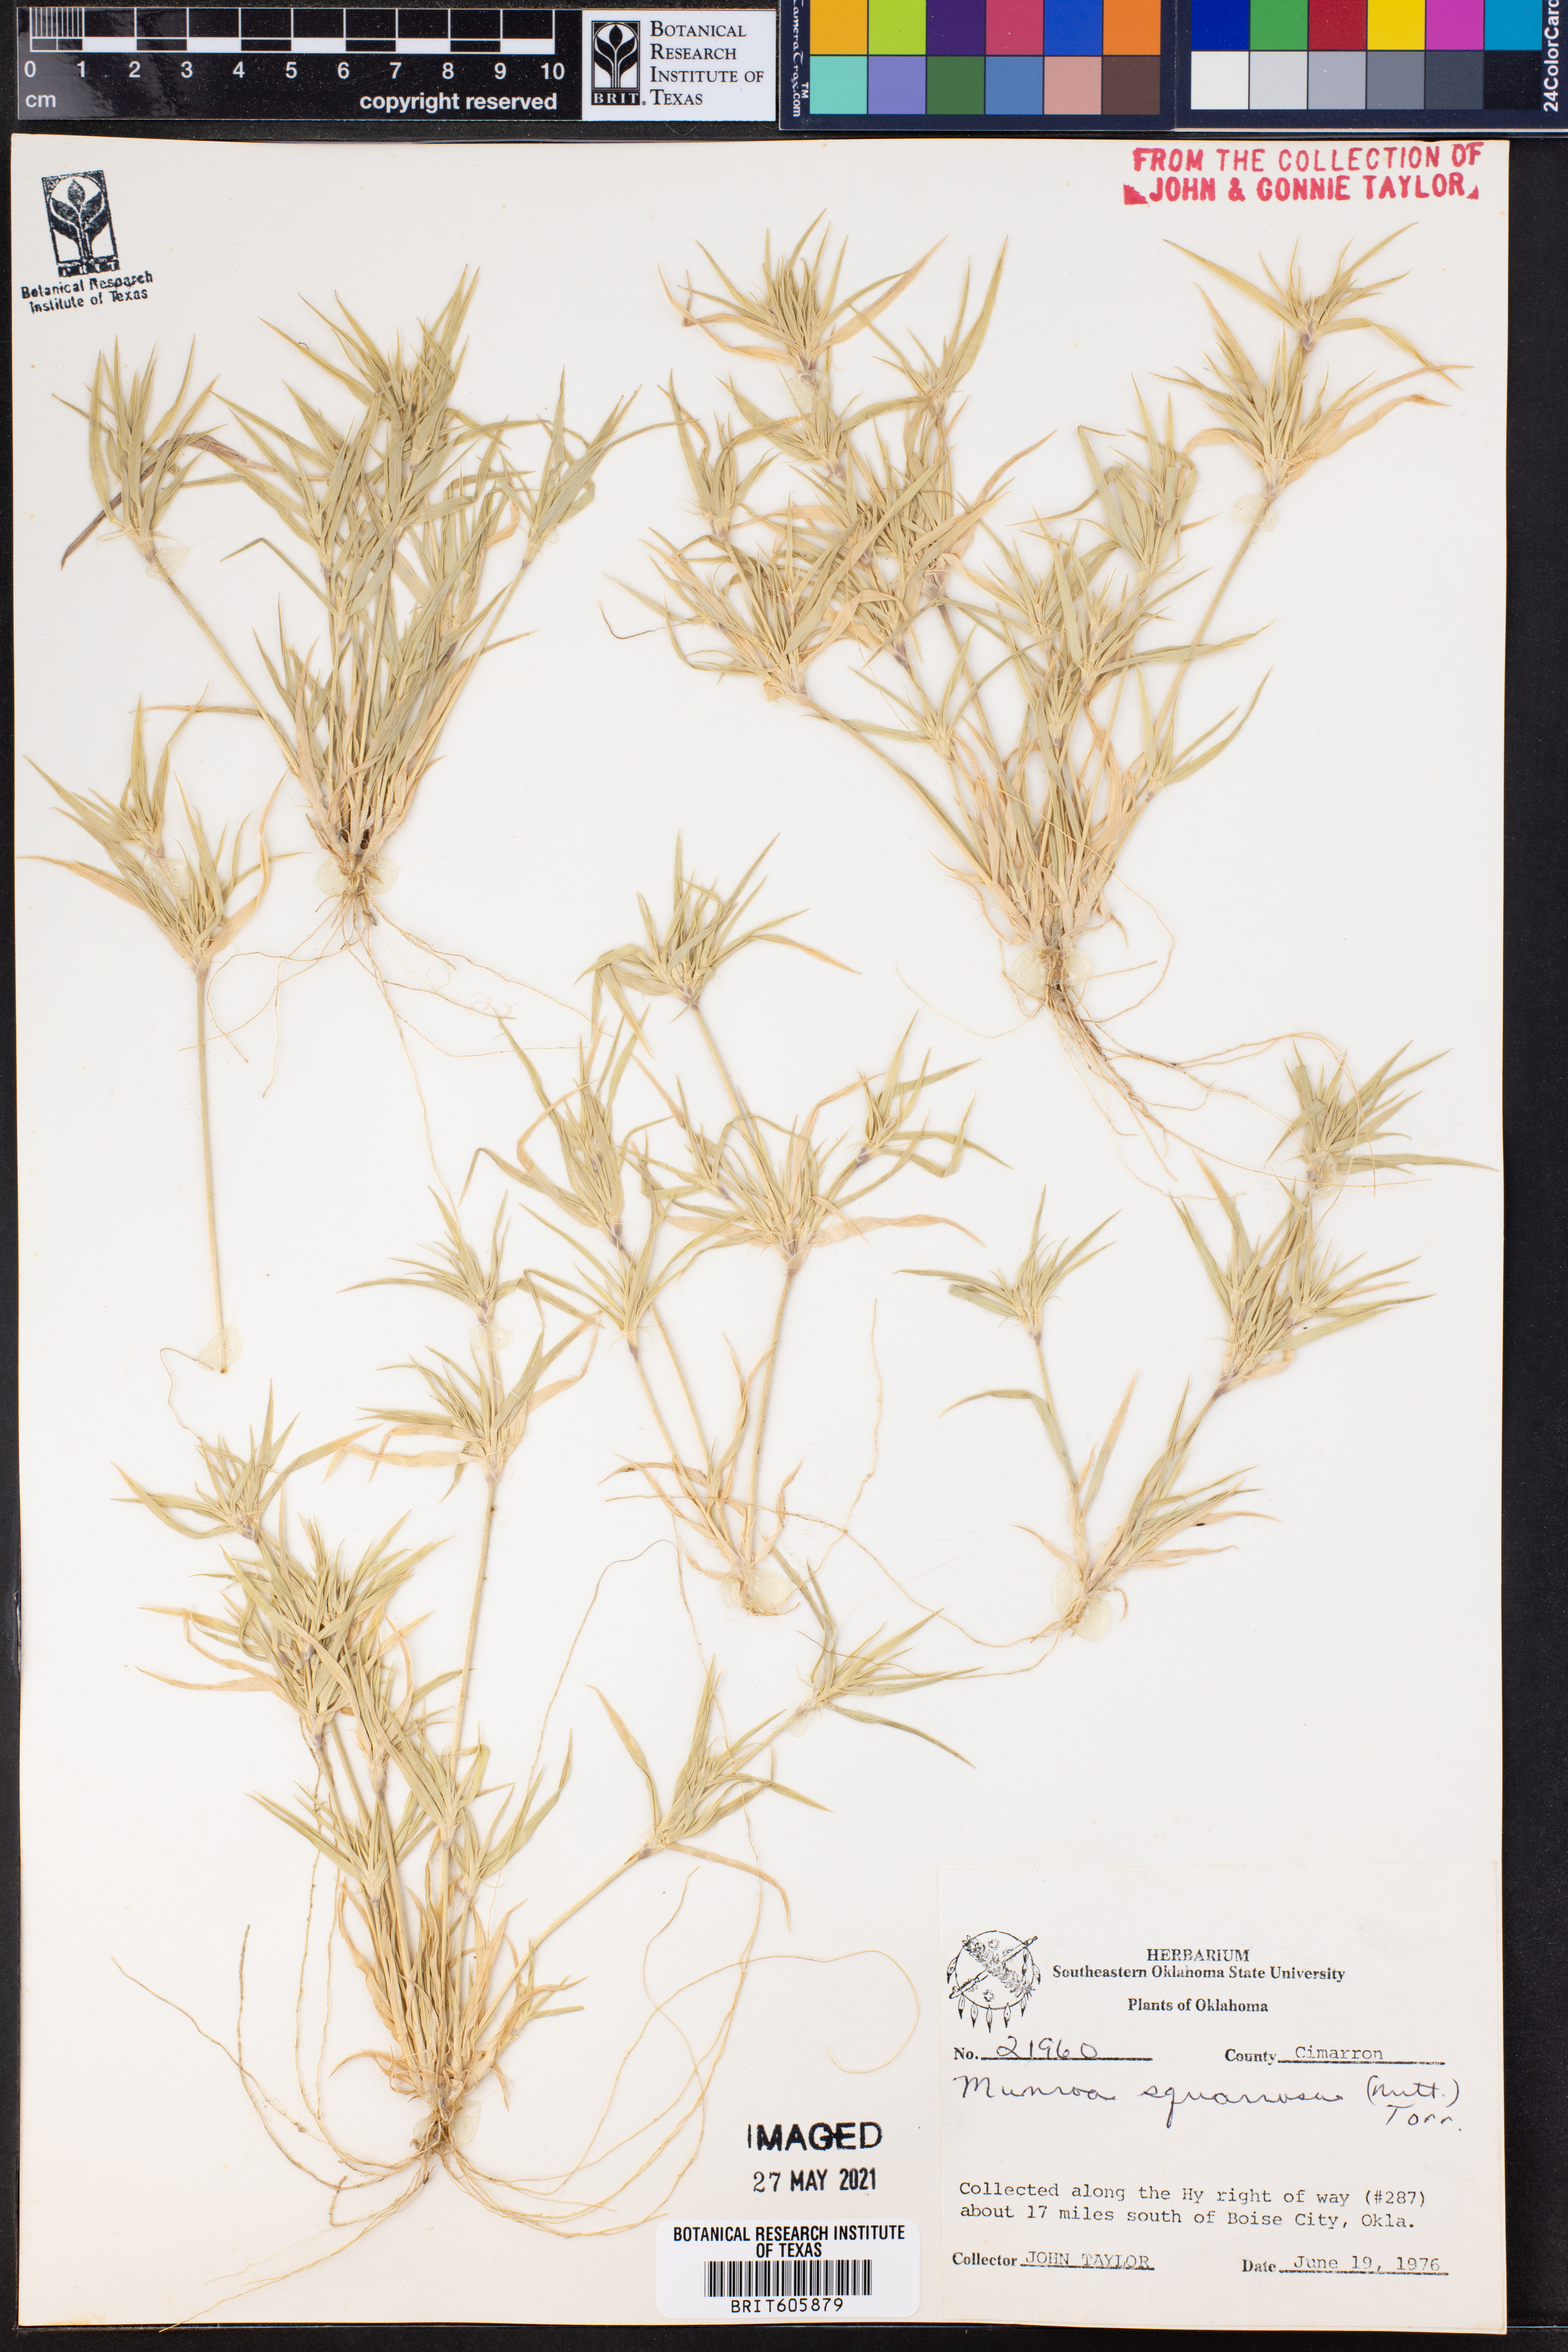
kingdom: Plantae
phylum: Tracheophyta
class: Liliopsida
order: Poales
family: Poaceae
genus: Munroa
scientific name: Munroa squarrosa
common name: False buffalo grass
